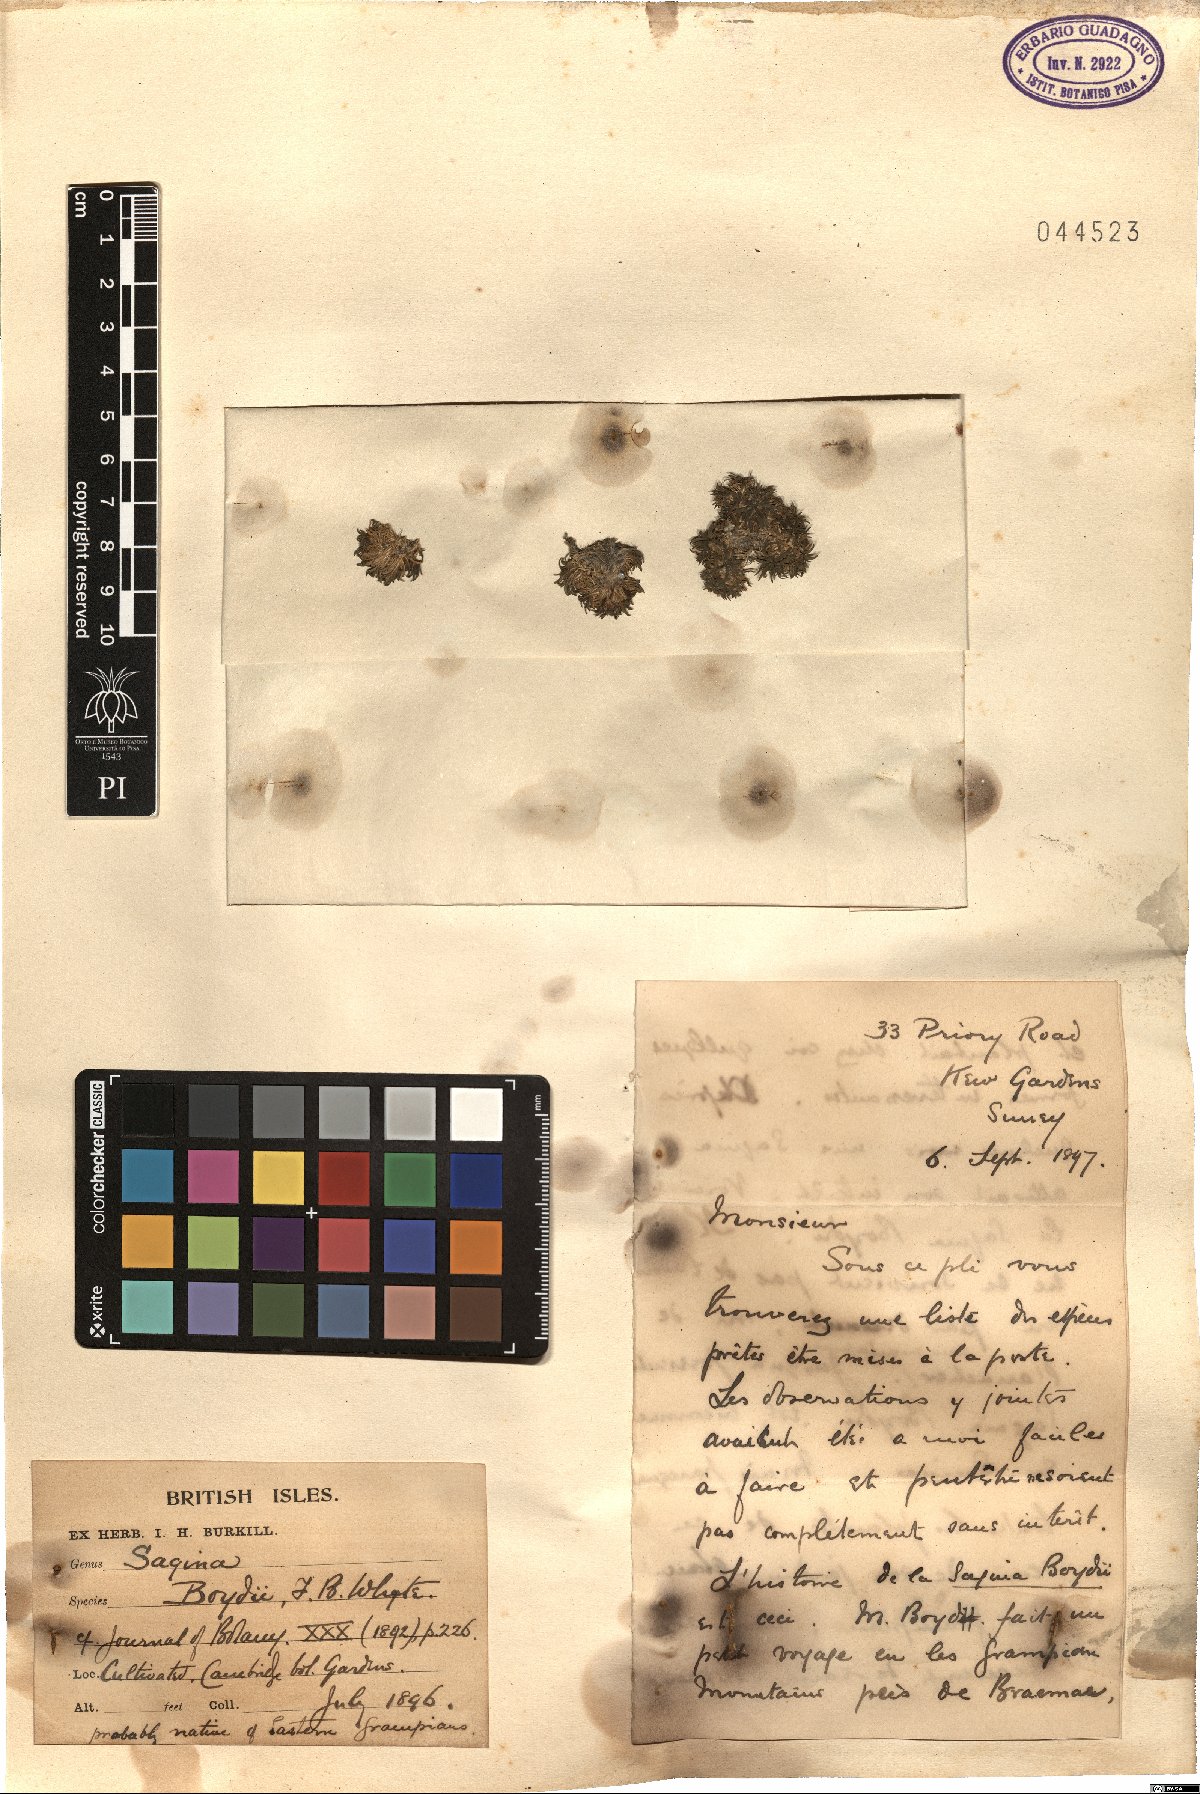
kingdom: Plantae
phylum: Tracheophyta
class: Magnoliopsida
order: Caryophyllales
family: Caryophyllaceae
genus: Sagina
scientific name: Sagina procumbens
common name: Procumbent pearlwort
